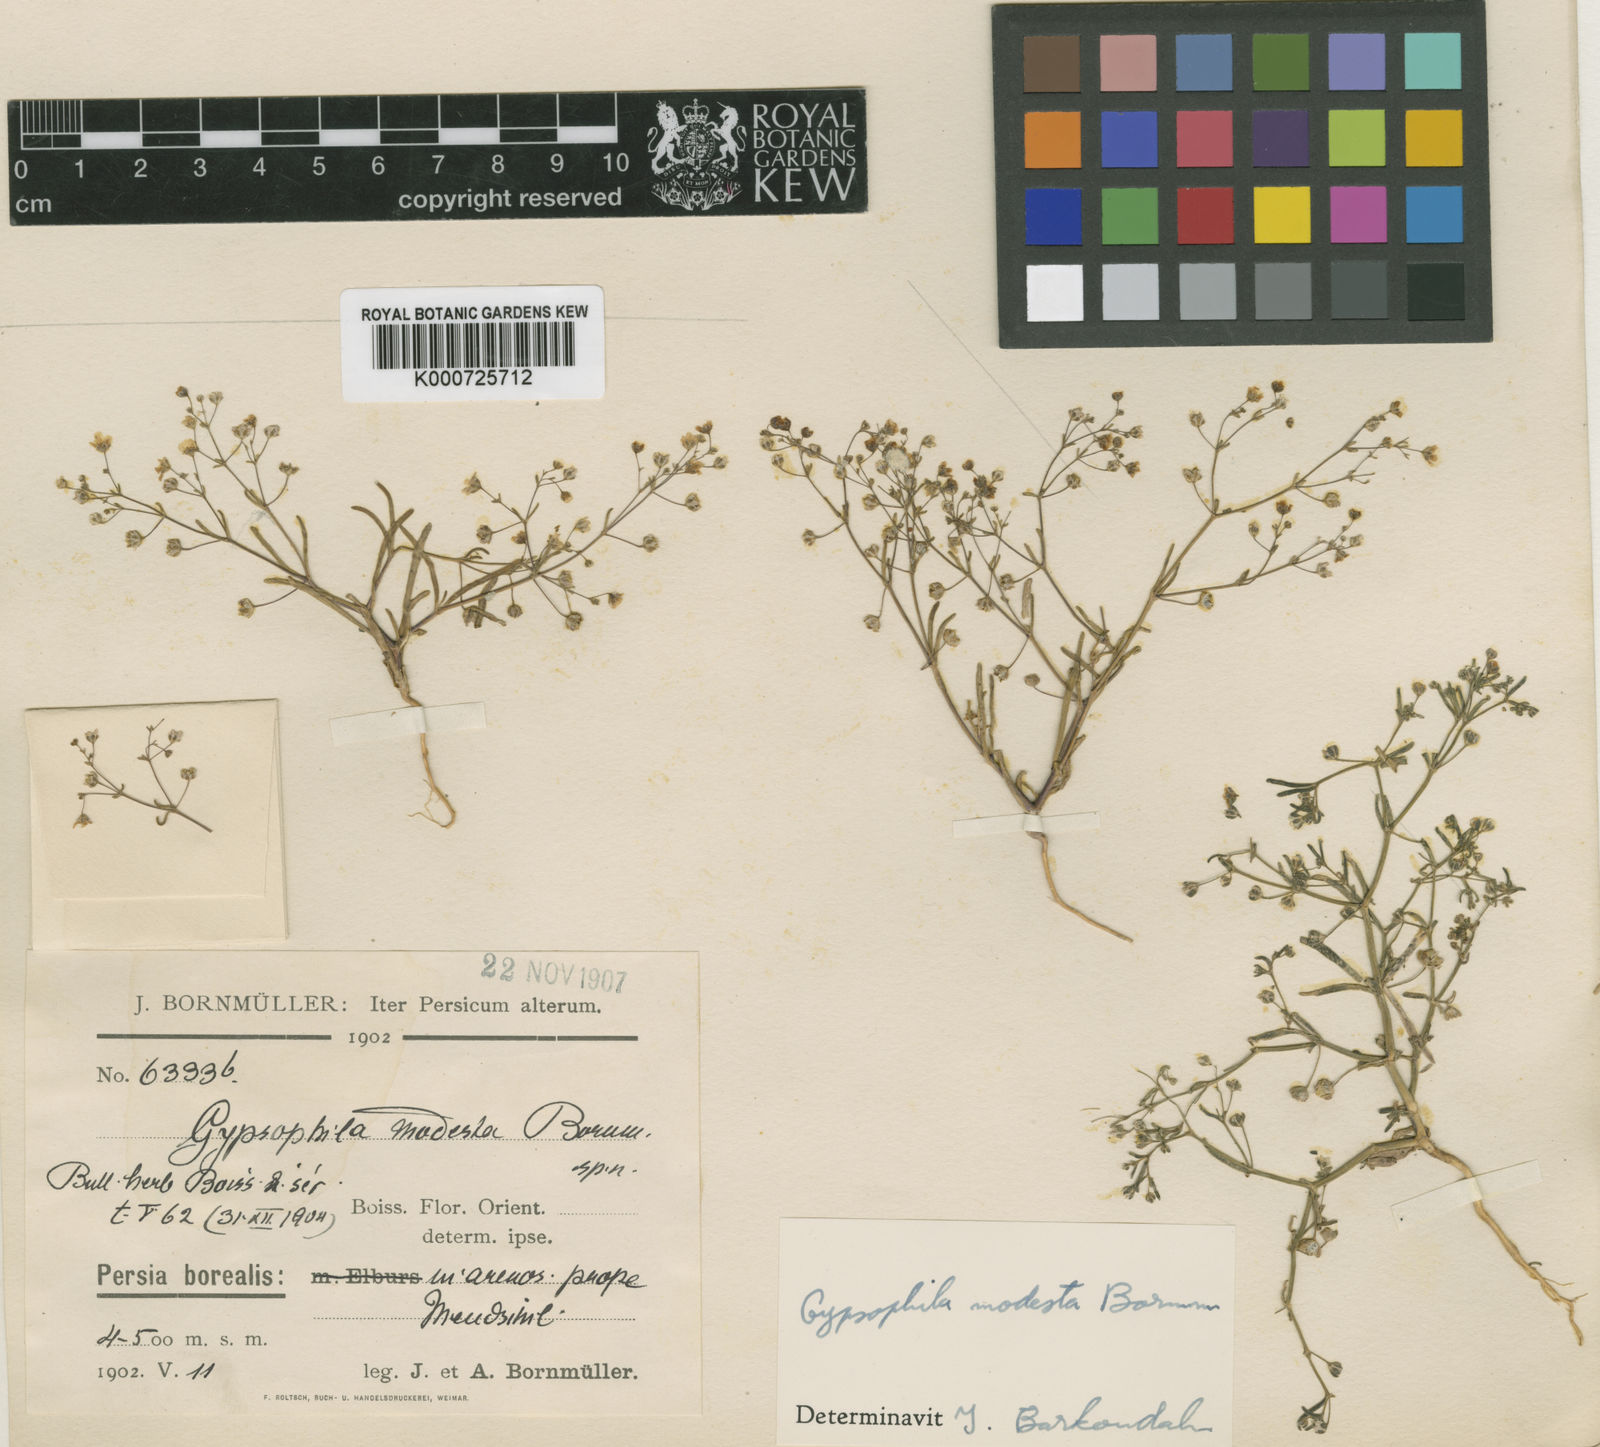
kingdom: Plantae
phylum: Tracheophyta
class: Magnoliopsida
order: Caryophyllales
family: Caryophyllaceae
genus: Gypsophila
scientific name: Gypsophila modesta
